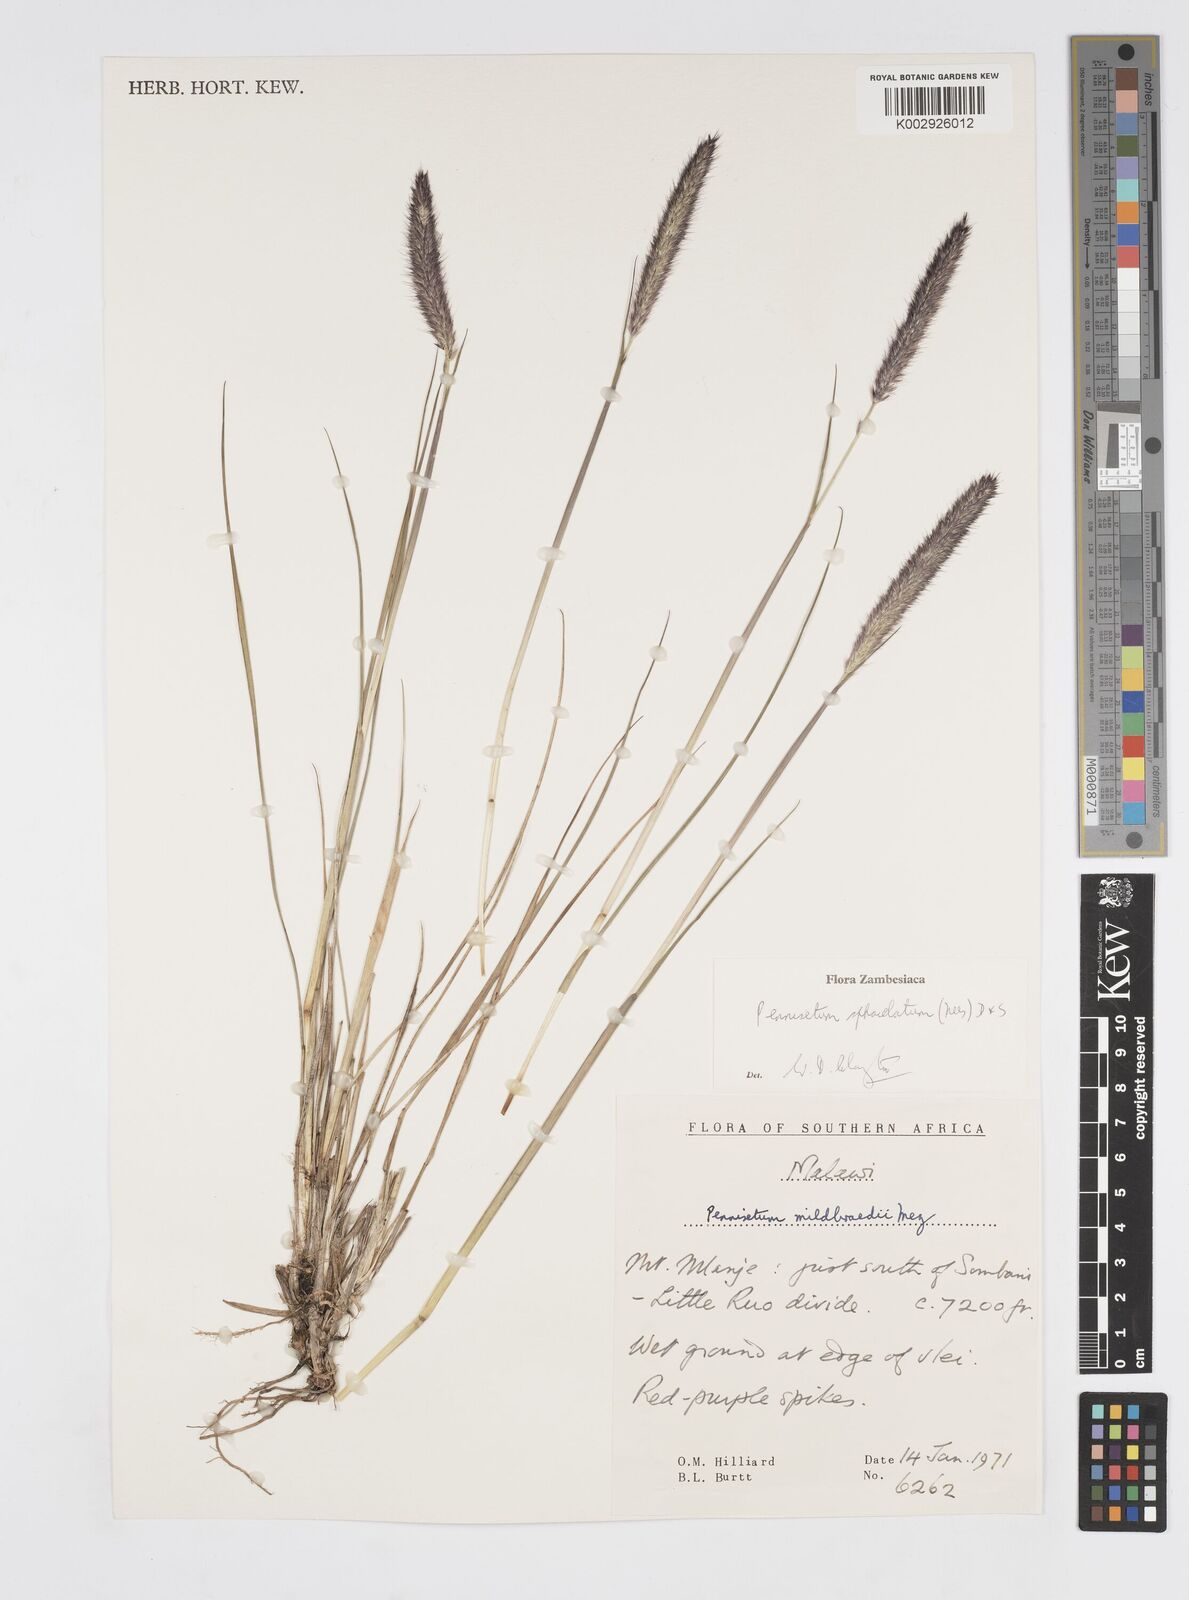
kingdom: Plantae
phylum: Tracheophyta
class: Liliopsida
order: Poales
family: Poaceae
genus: Cenchrus
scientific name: Cenchrus sphacelatus
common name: Bulgras
